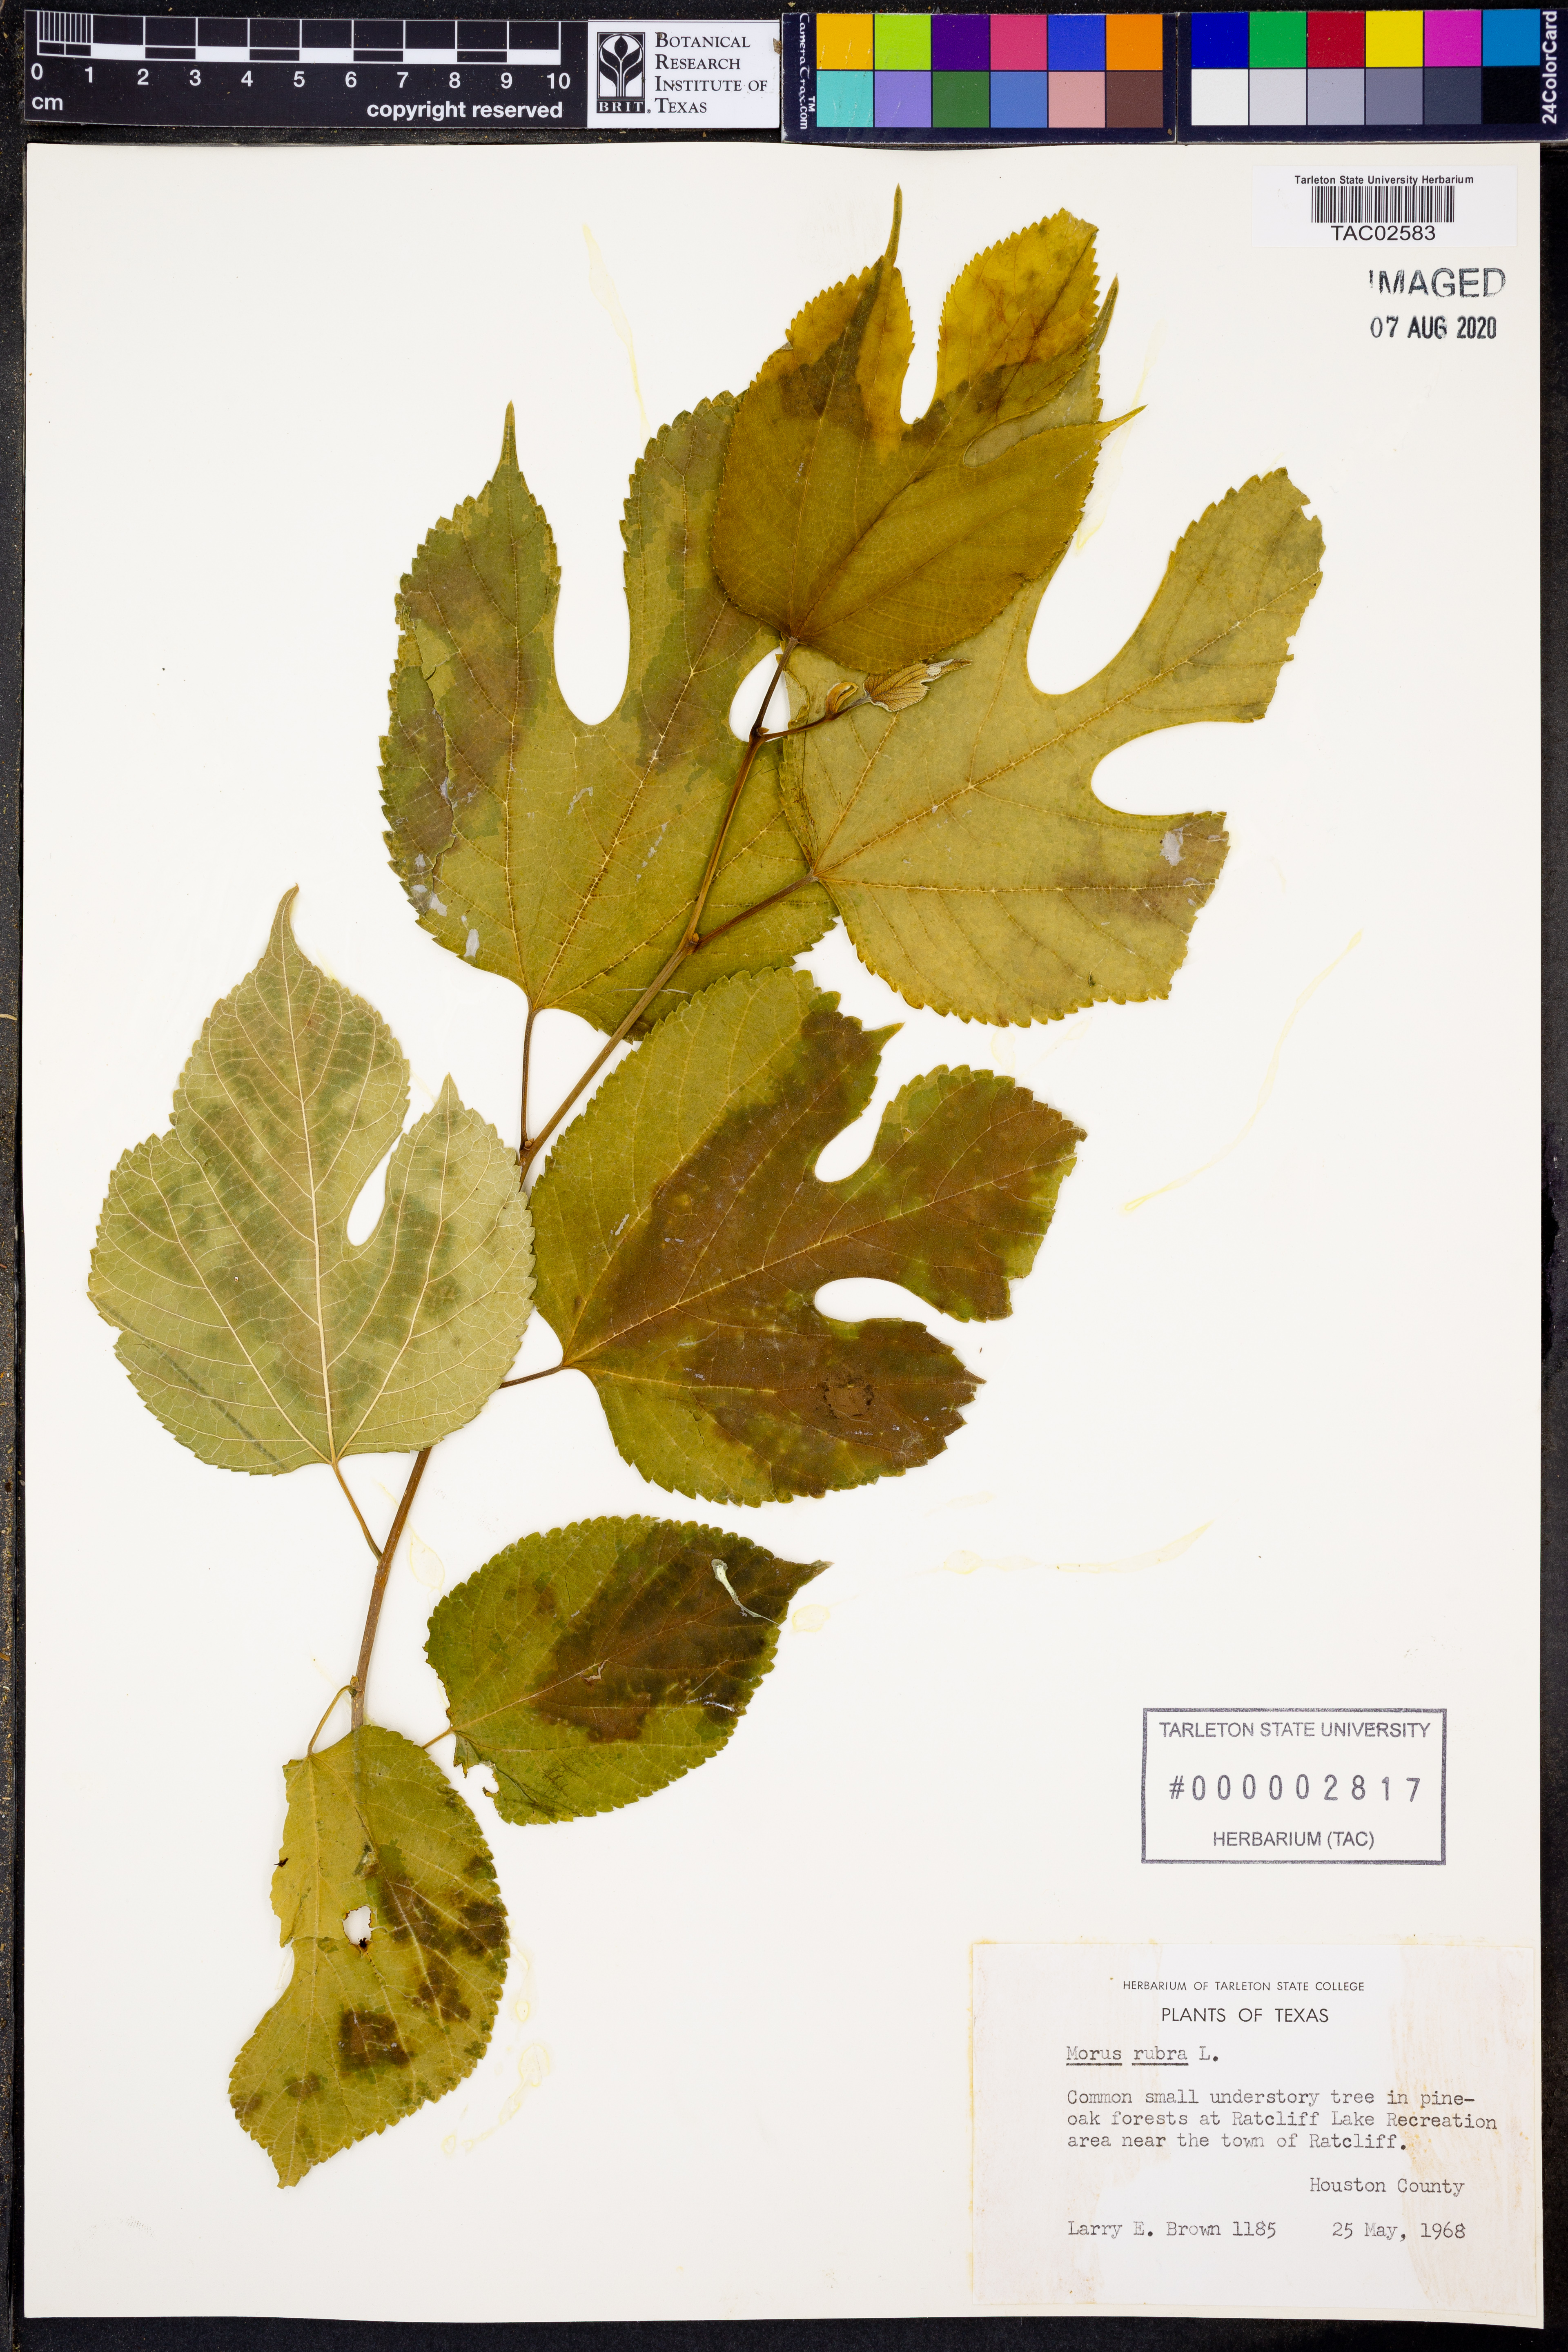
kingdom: Plantae
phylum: Tracheophyta
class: Magnoliopsida
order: Rosales
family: Moraceae
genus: Morus
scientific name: Morus rubra
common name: Red mulberry
